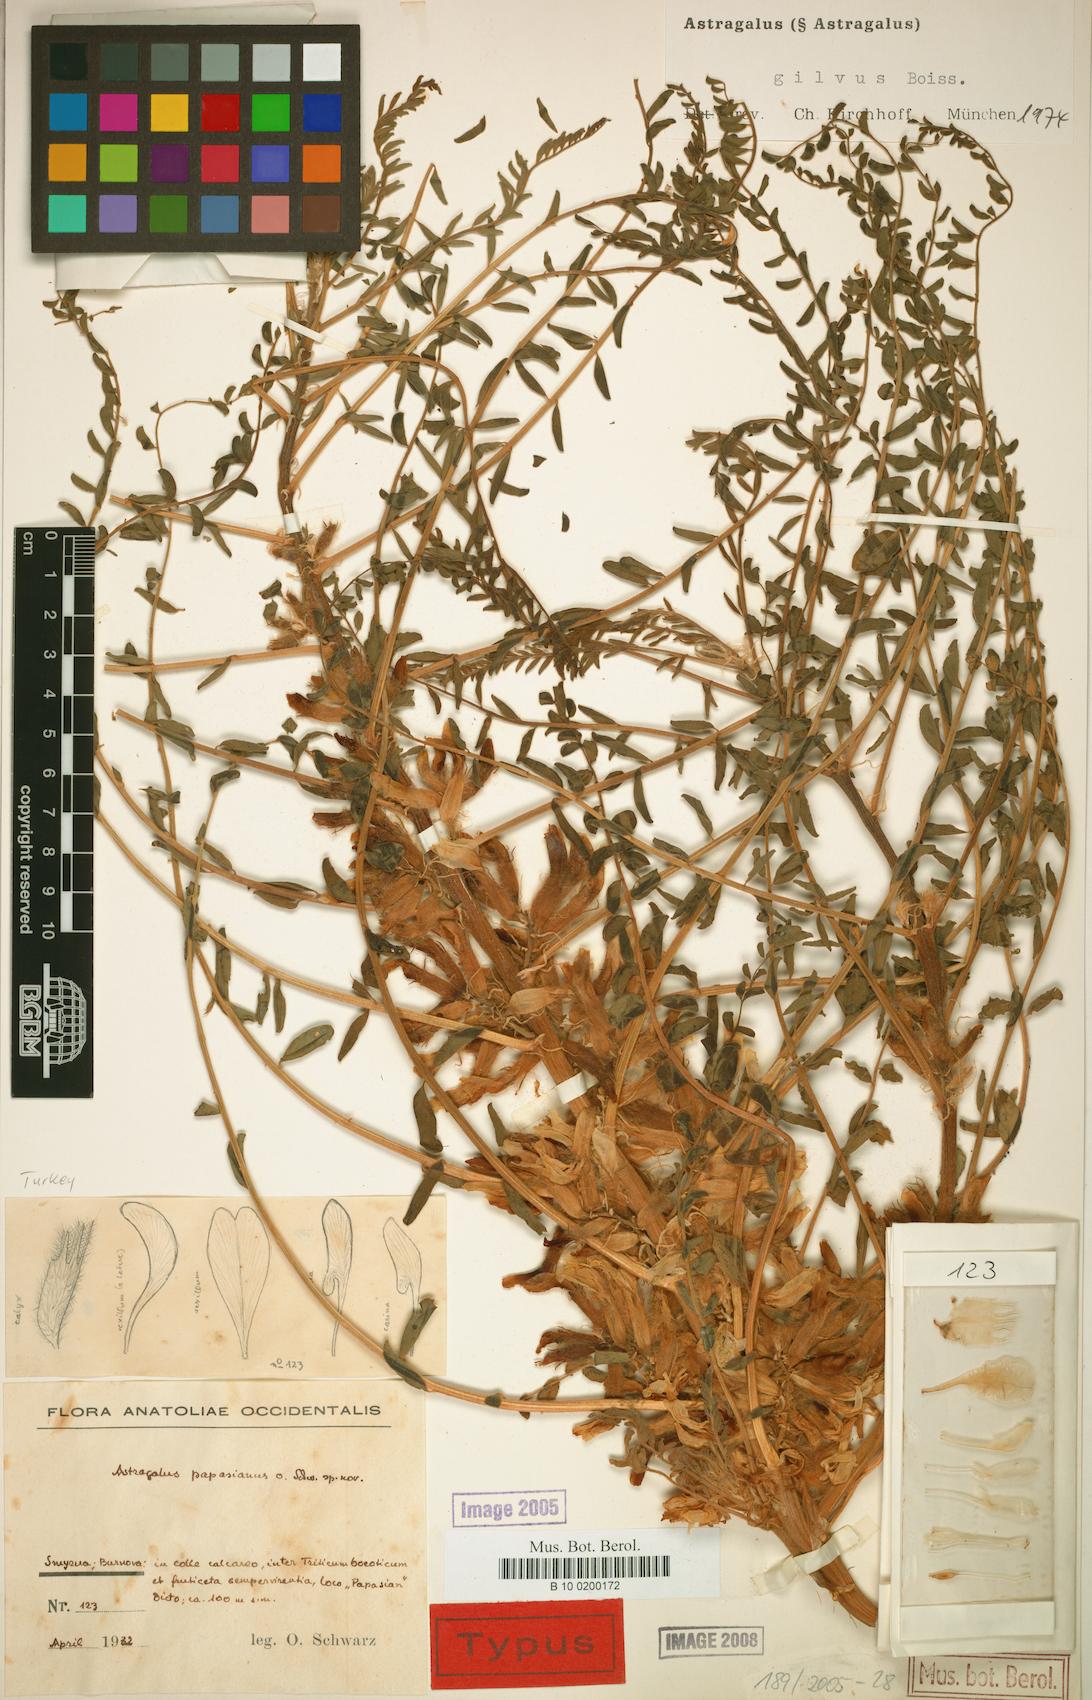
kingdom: Plantae
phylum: Tracheophyta
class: Magnoliopsida
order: Fabales
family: Fabaceae
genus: Astragalus
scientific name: Astragalus gilvus
